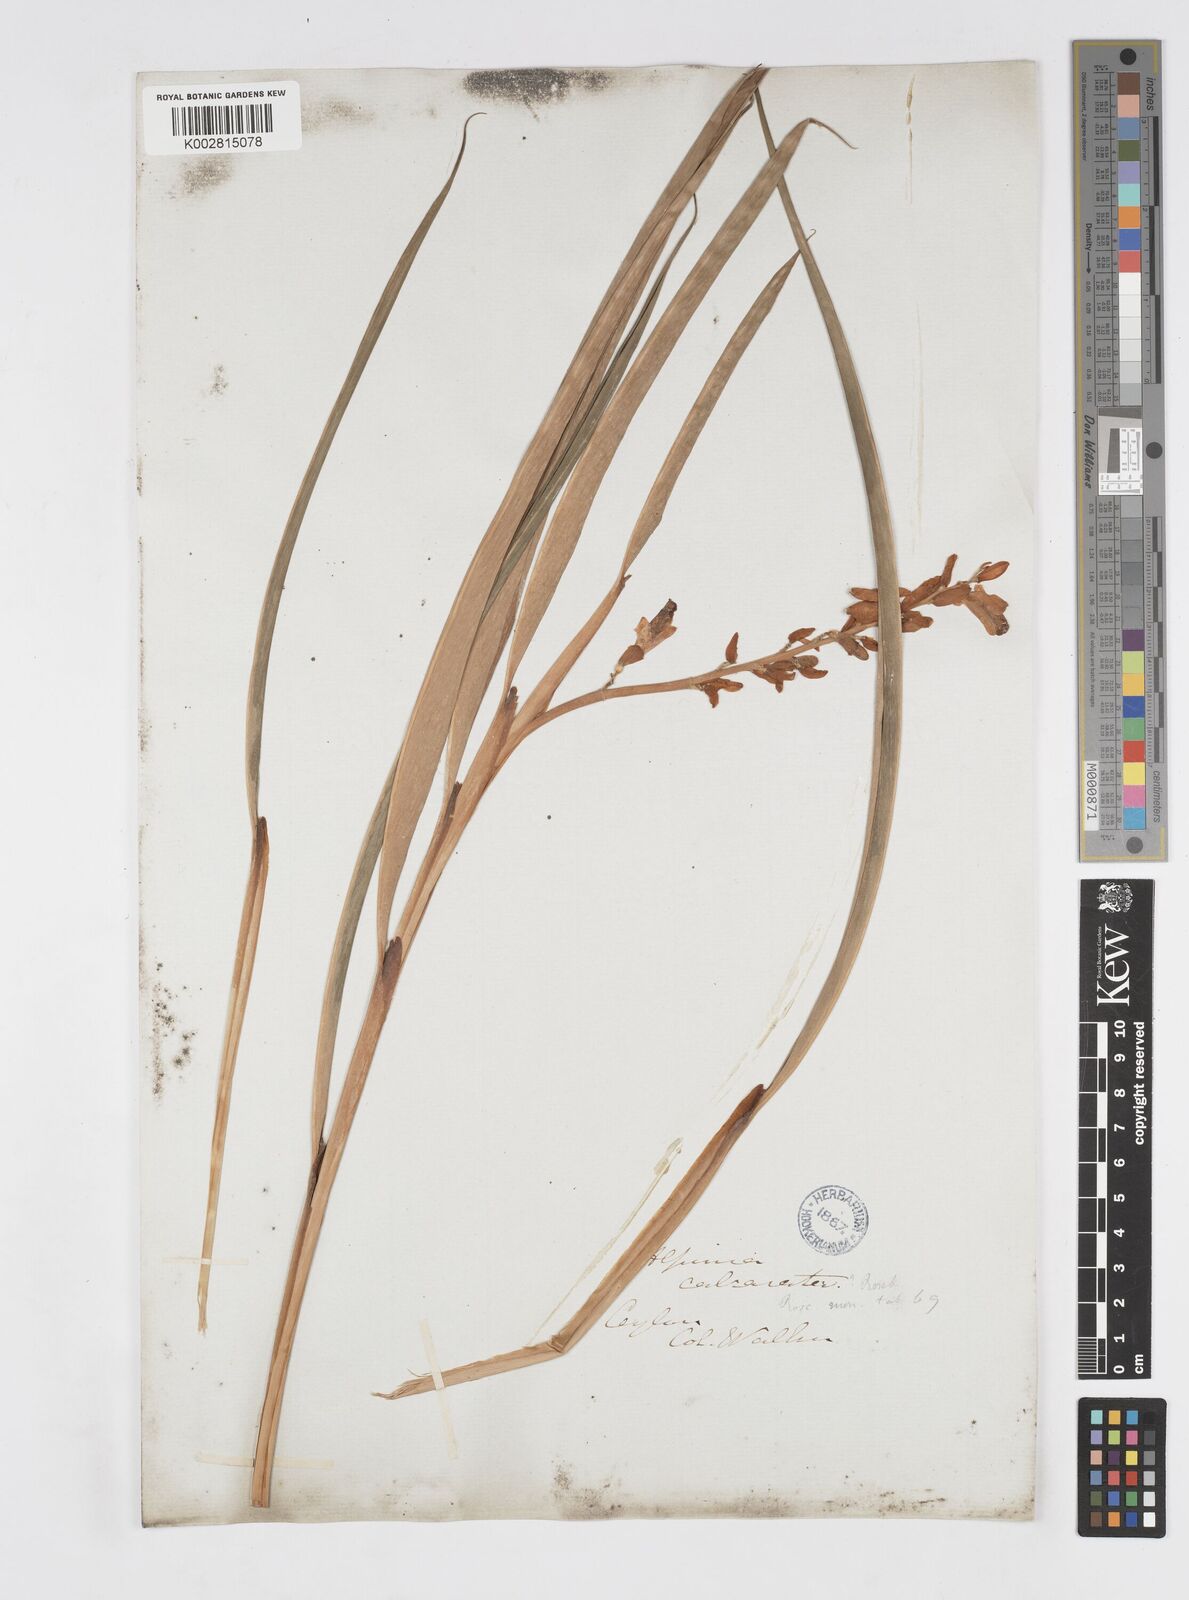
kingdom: Plantae
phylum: Tracheophyta
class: Liliopsida
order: Zingiberales
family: Zingiberaceae
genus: Alpinia
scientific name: Alpinia calcarata
